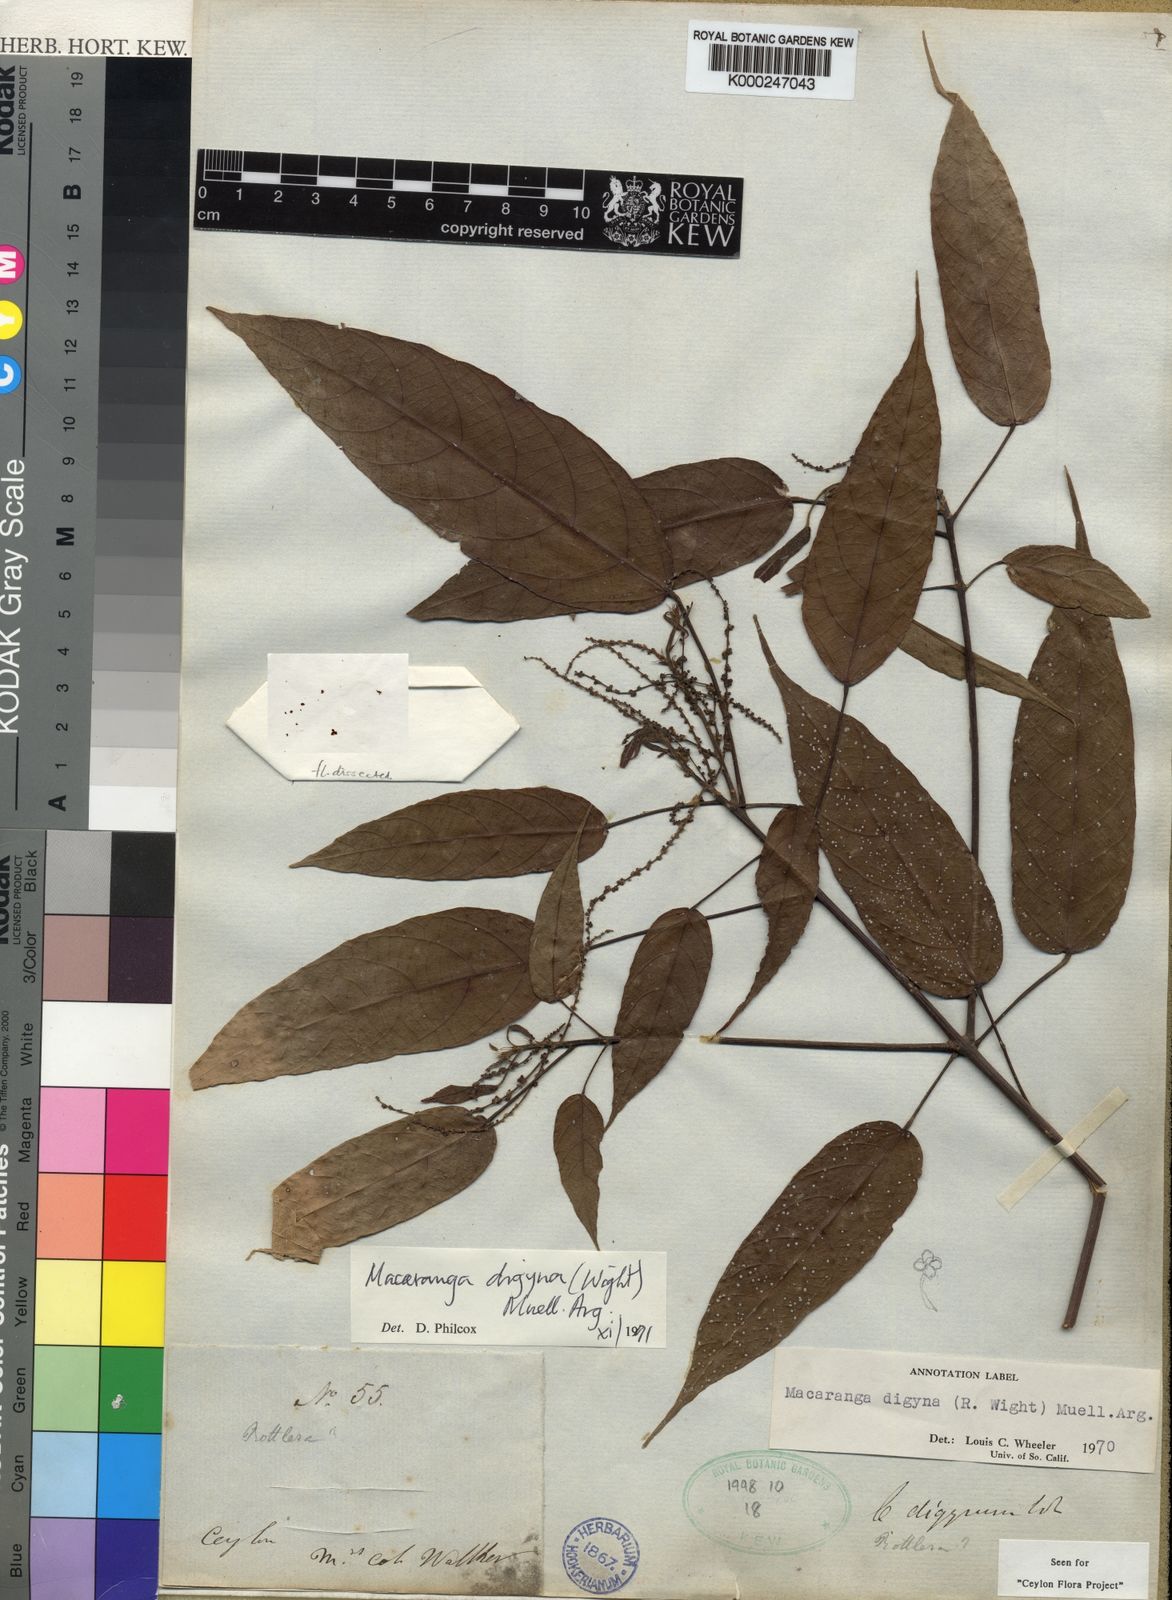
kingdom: Plantae
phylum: Tracheophyta
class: Magnoliopsida
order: Malpighiales
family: Euphorbiaceae
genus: Macaranga
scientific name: Macaranga
